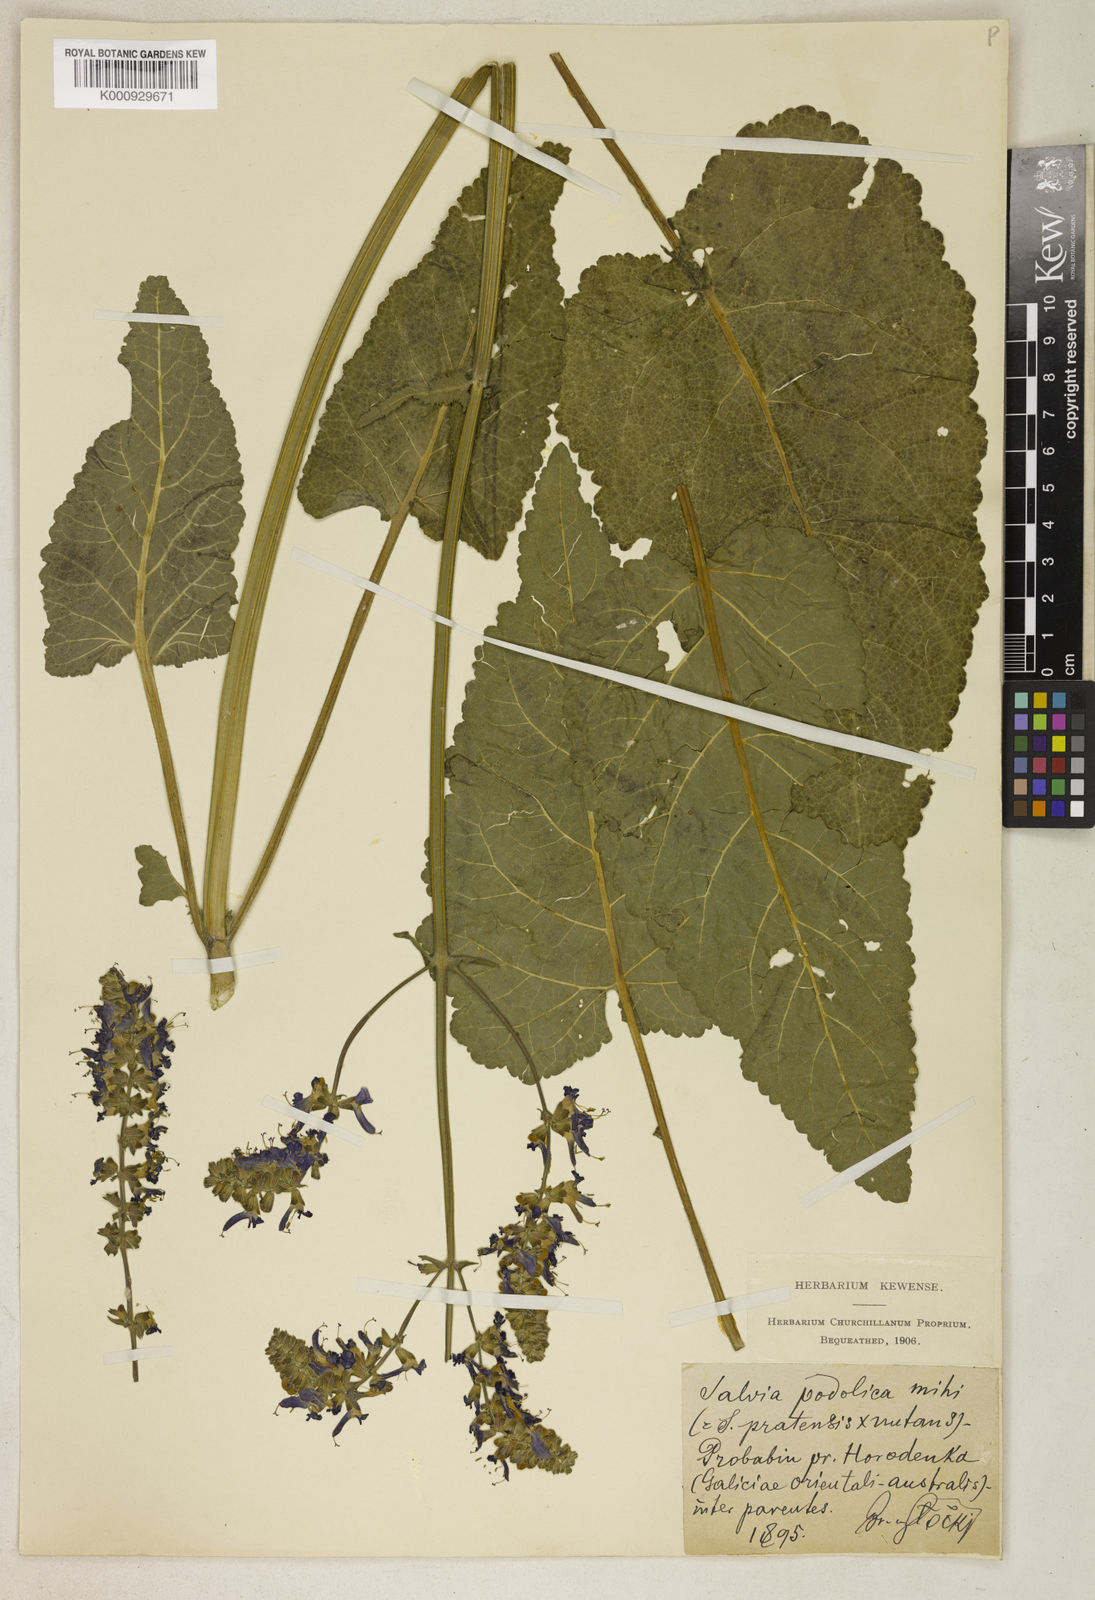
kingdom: Plantae
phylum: Tracheophyta
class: Magnoliopsida
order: Lamiales
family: Lamiaceae
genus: Salvia
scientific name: Salvia nutans
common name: Nodding sage
